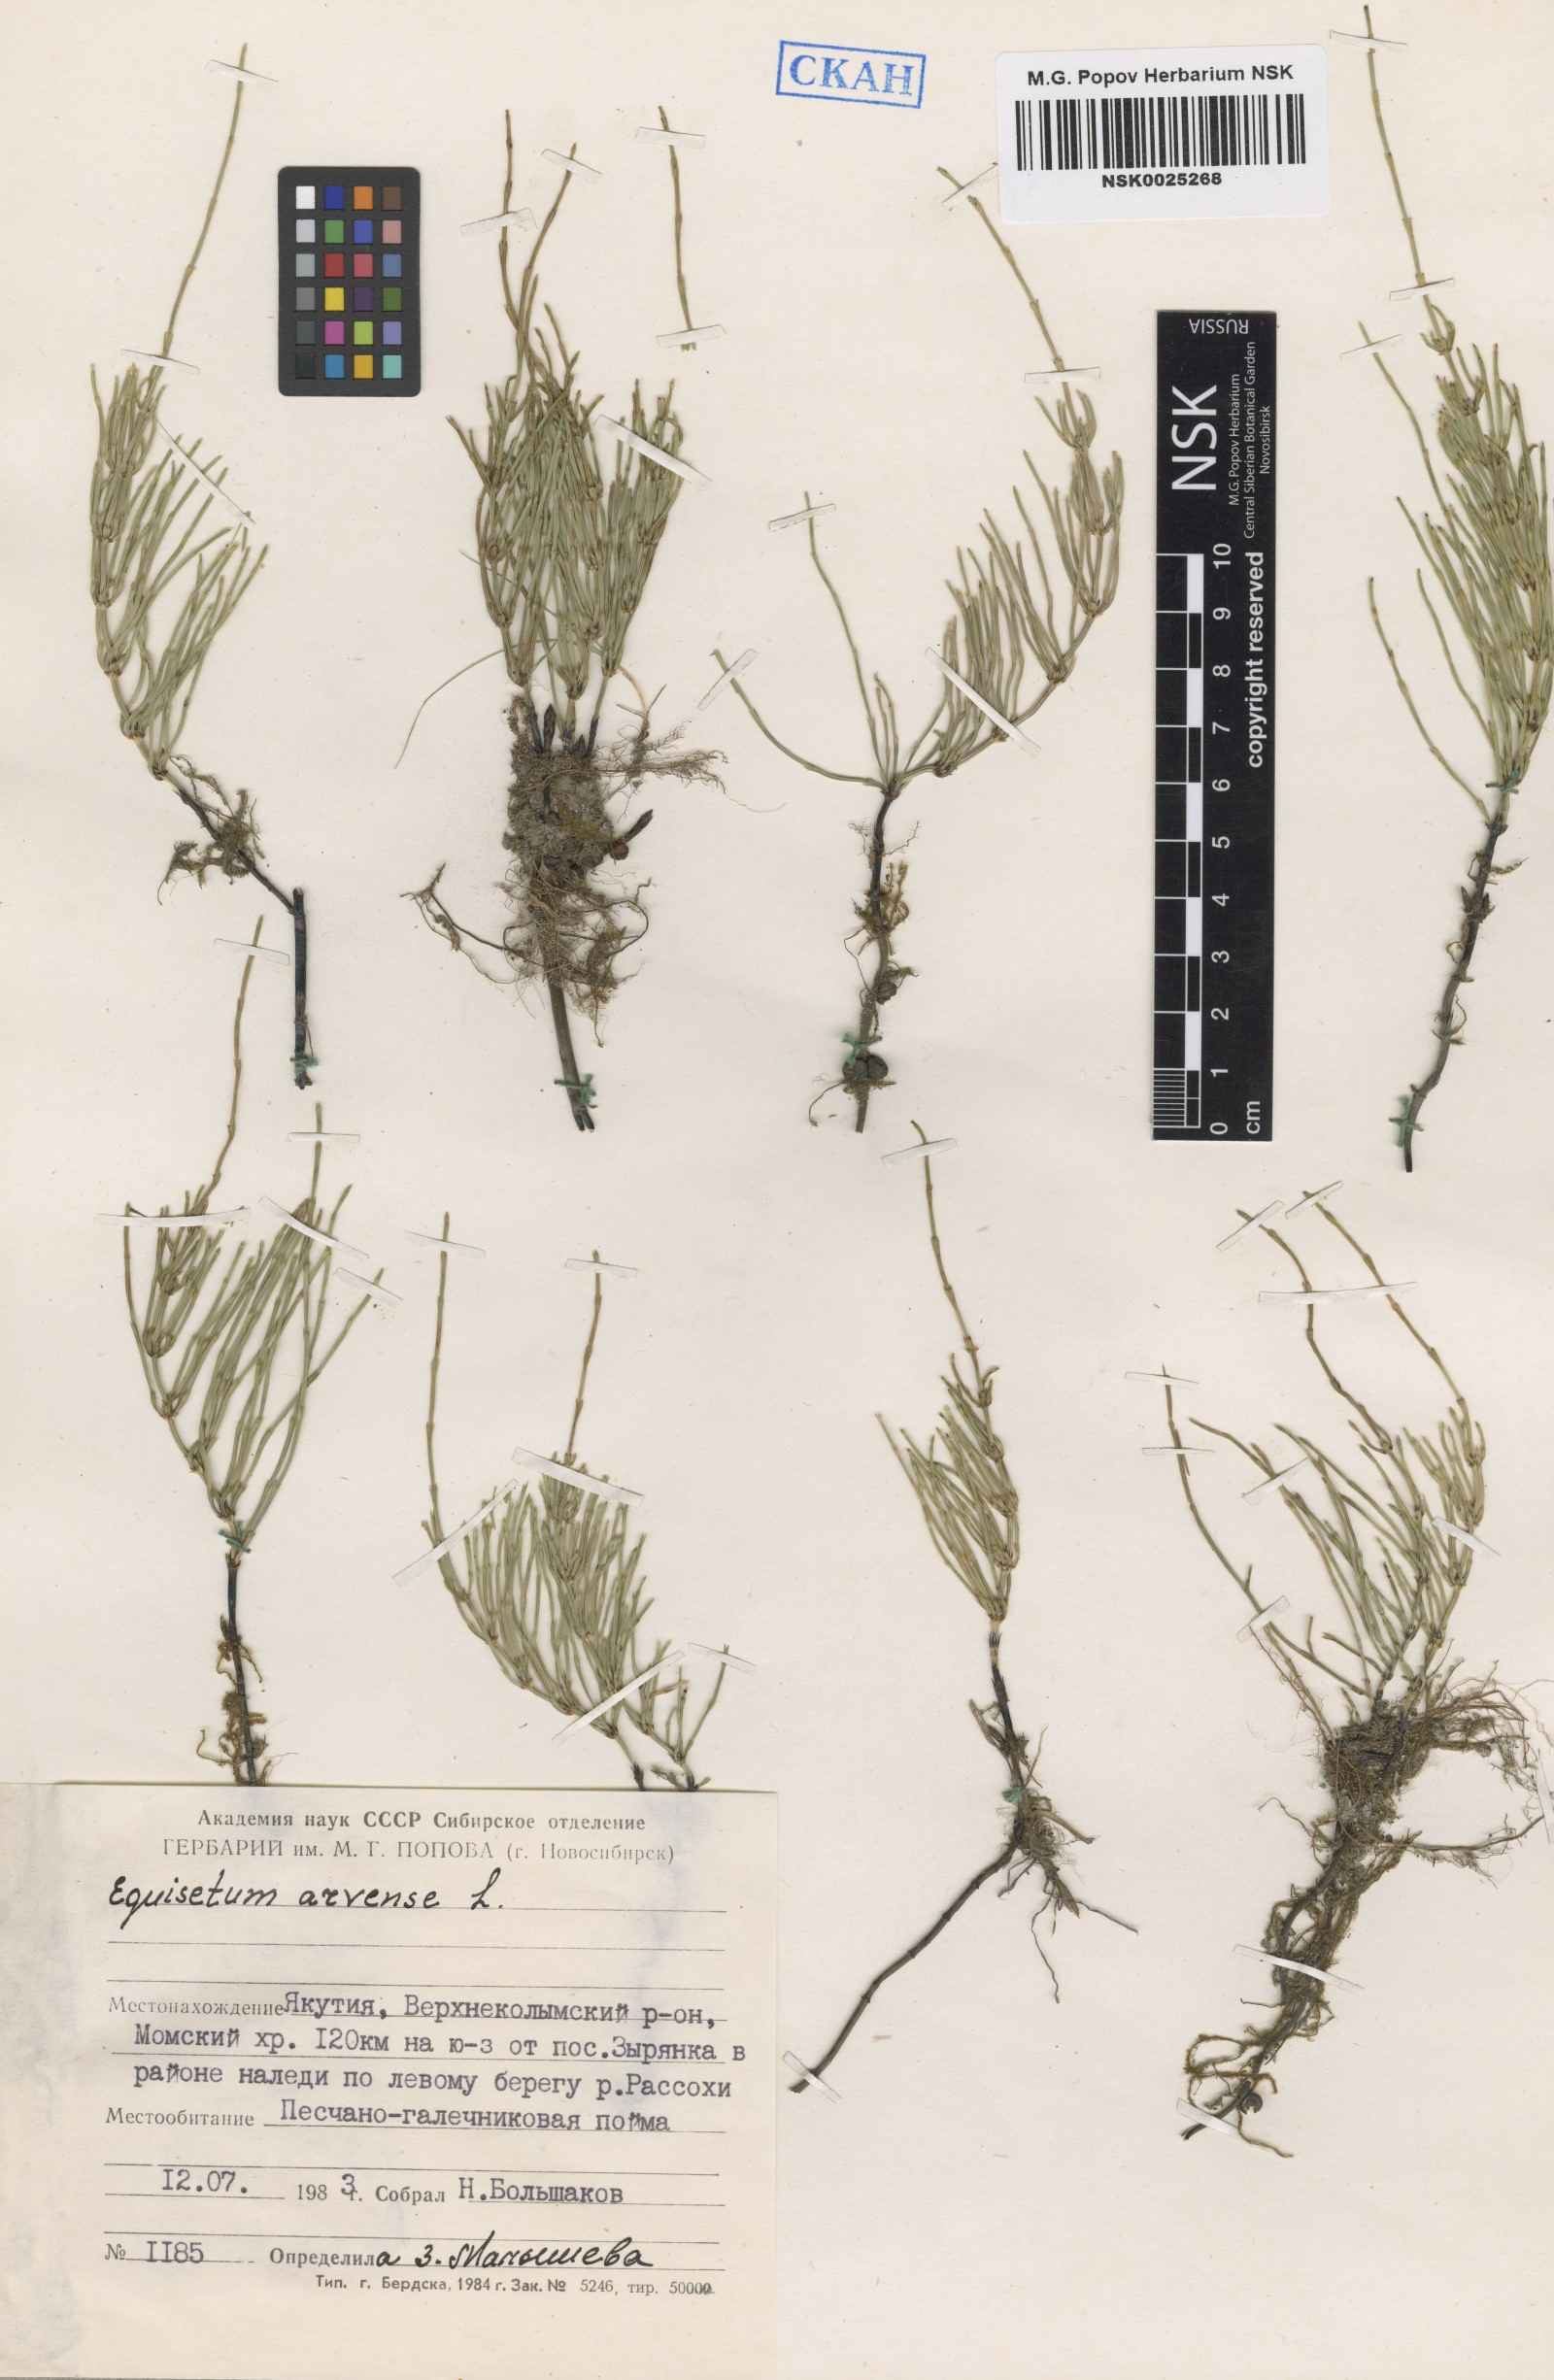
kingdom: Plantae
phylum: Tracheophyta
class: Polypodiopsida
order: Equisetales
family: Equisetaceae
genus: Equisetum
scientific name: Equisetum arvense
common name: Field horsetail
